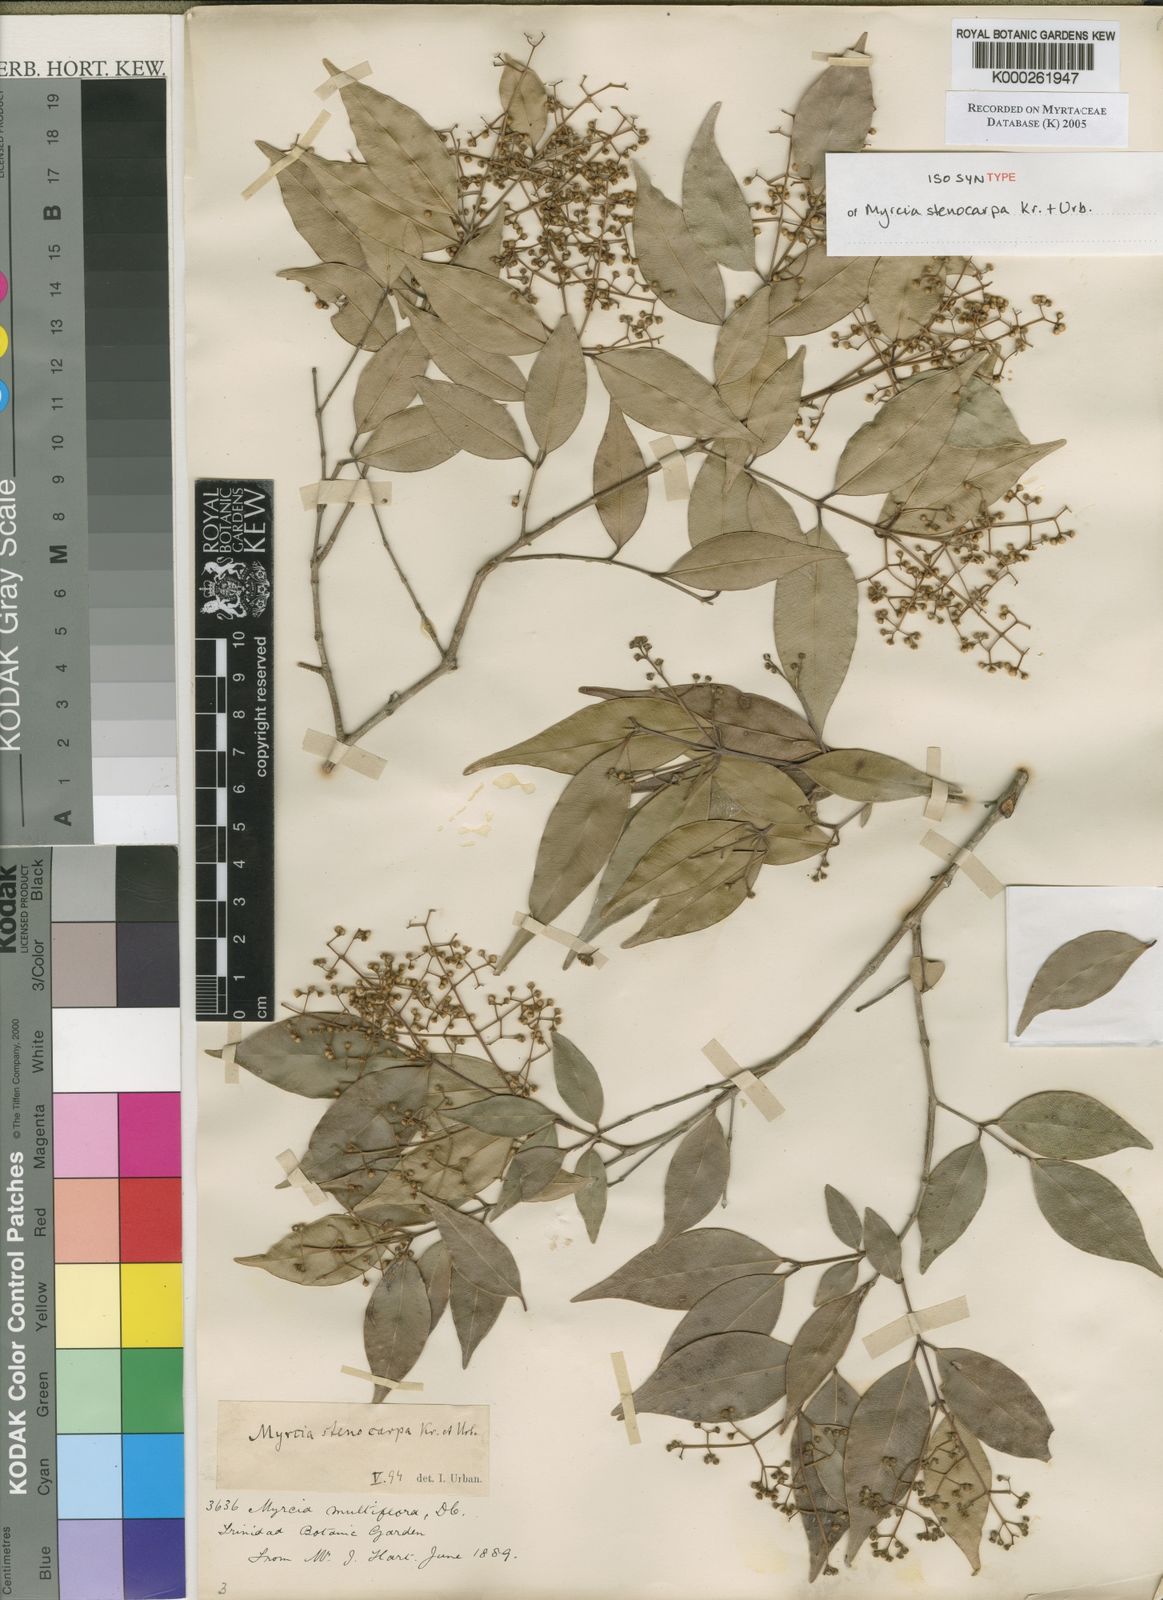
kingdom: Plantae
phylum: Tracheophyta
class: Magnoliopsida
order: Myrtales
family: Myrtaceae
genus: Myrcia
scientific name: Myrcia stenocarpa
